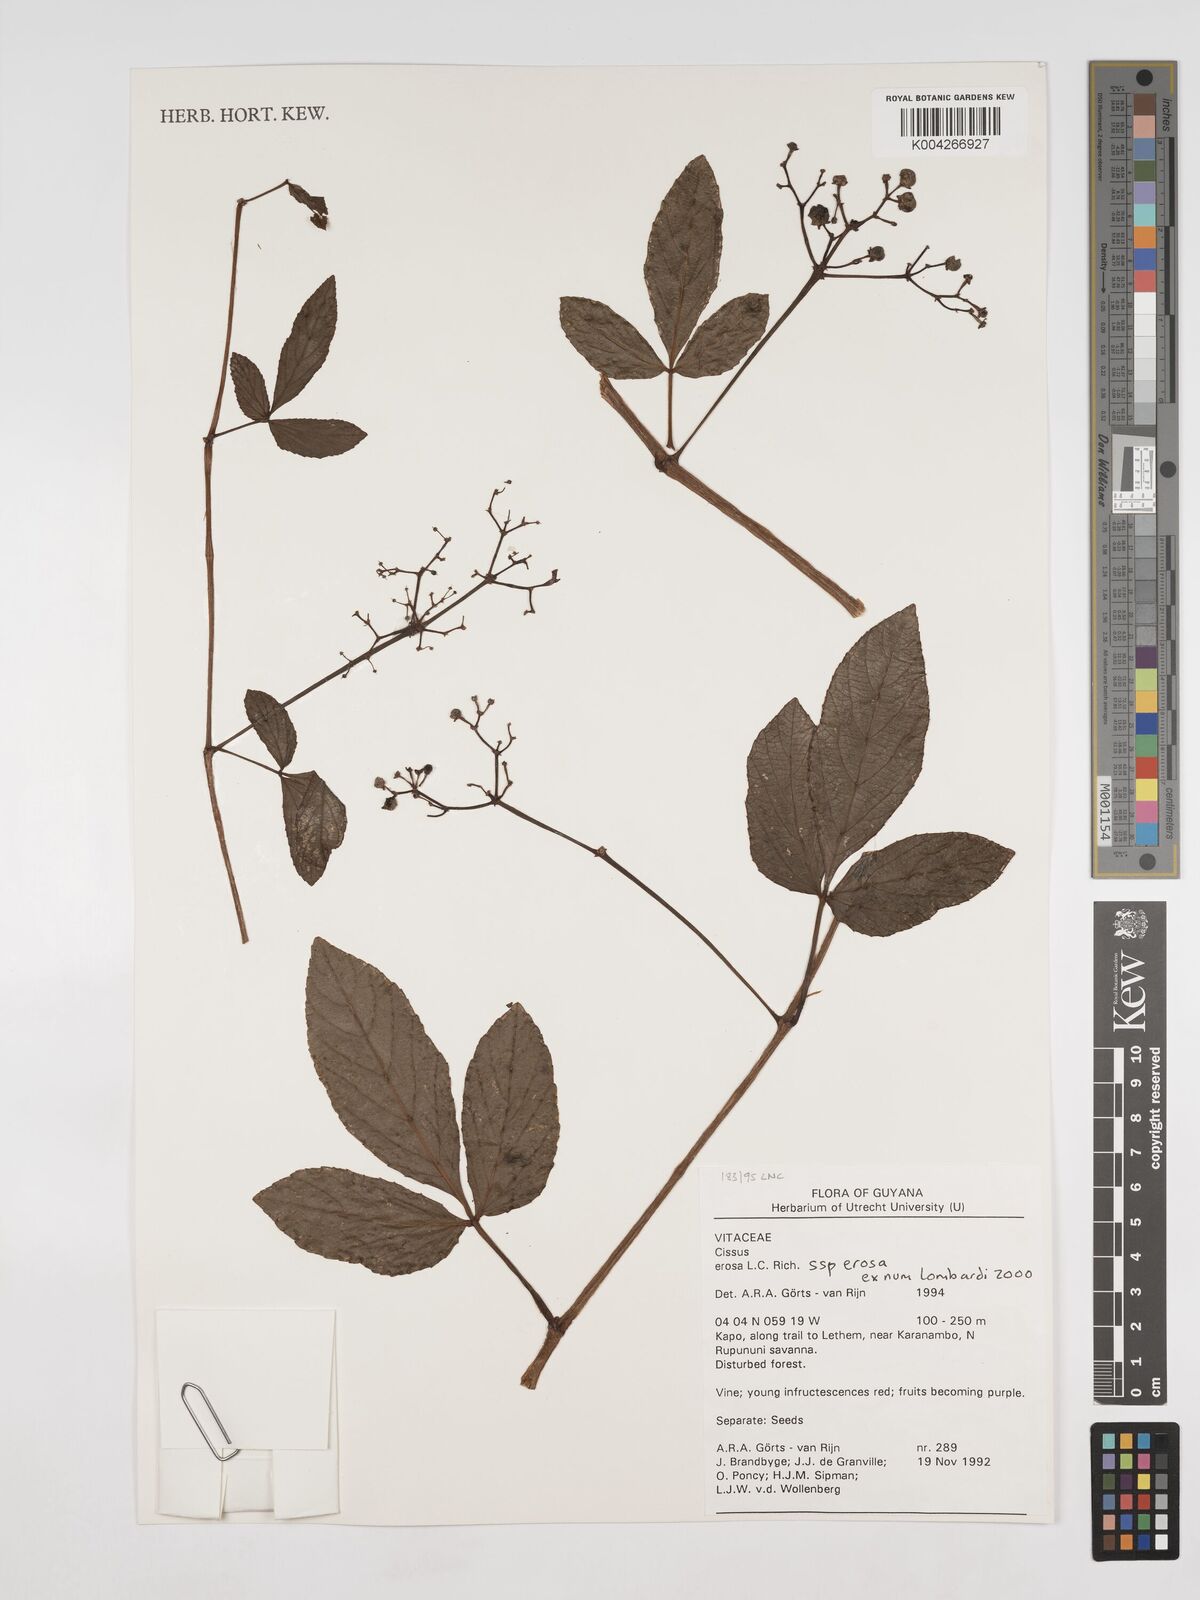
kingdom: Plantae
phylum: Tracheophyta
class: Magnoliopsida
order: Vitales
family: Vitaceae
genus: Cissus
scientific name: Cissus erosa
